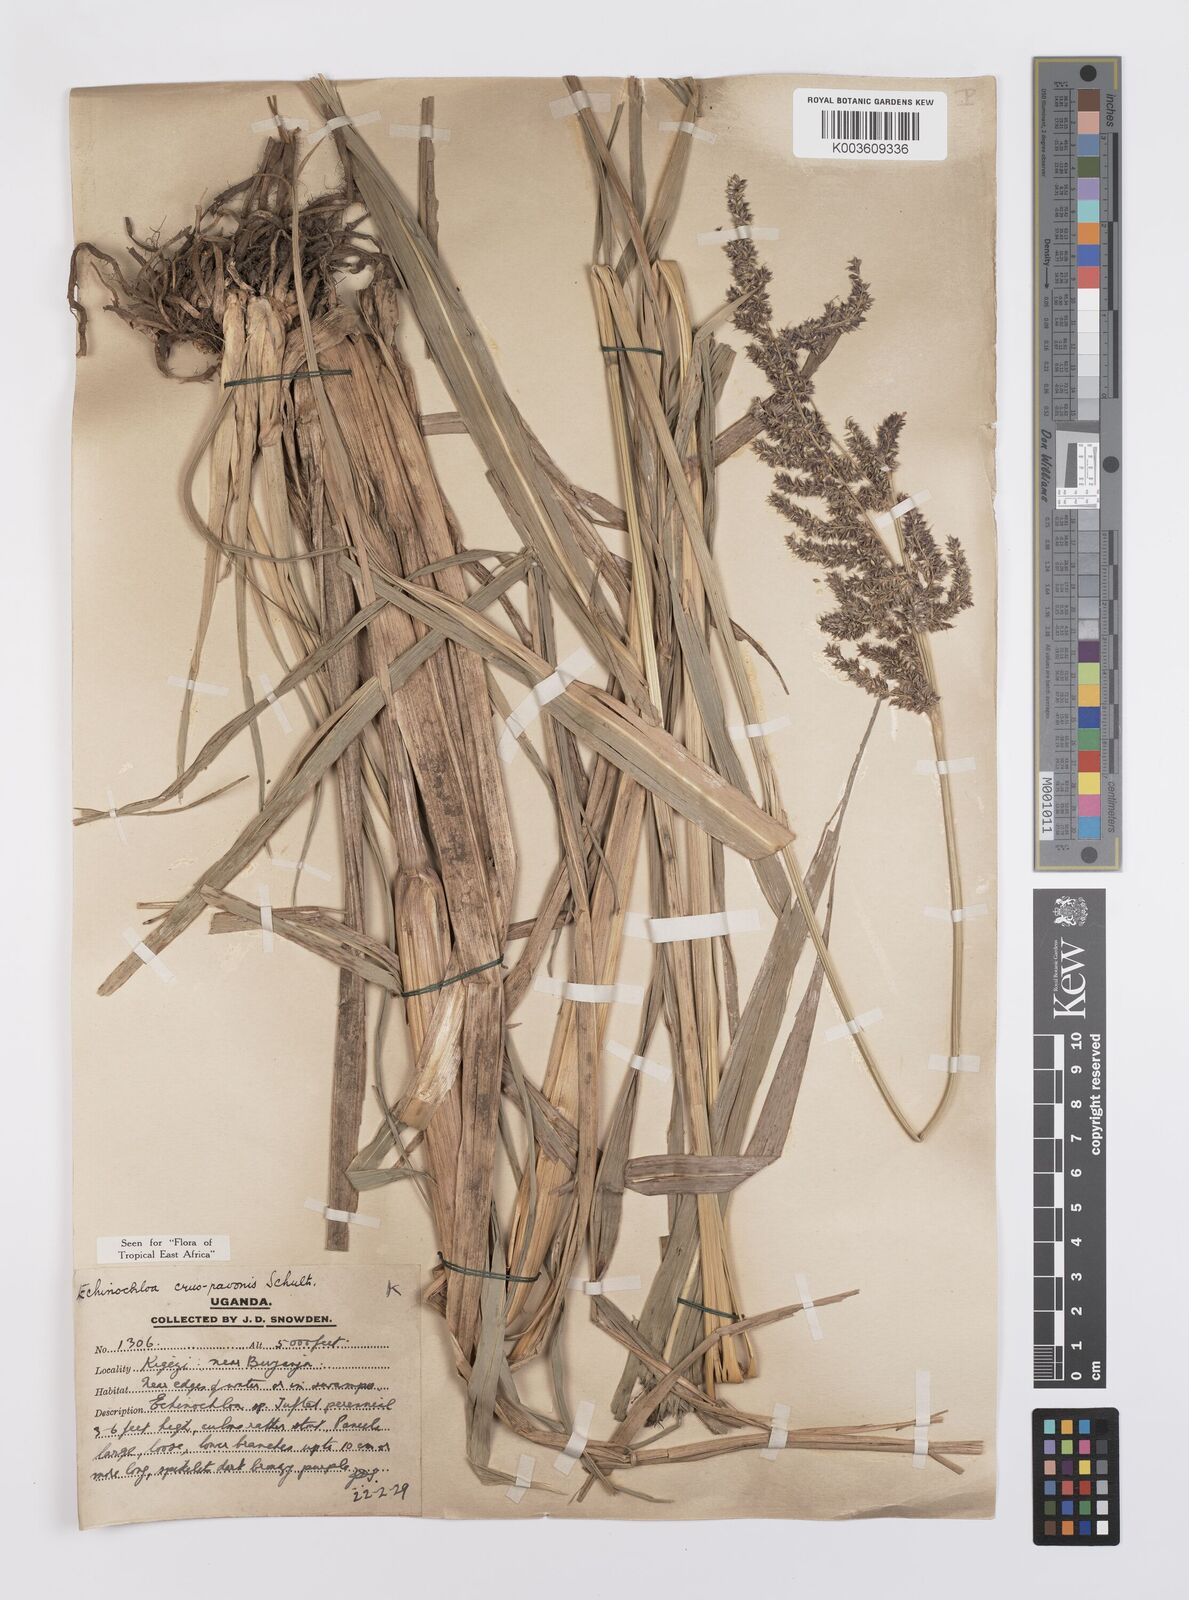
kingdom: Plantae
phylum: Tracheophyta
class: Liliopsida
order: Poales
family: Poaceae
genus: Echinochloa
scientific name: Echinochloa crus-pavonis
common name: Gulf cockspur grass
